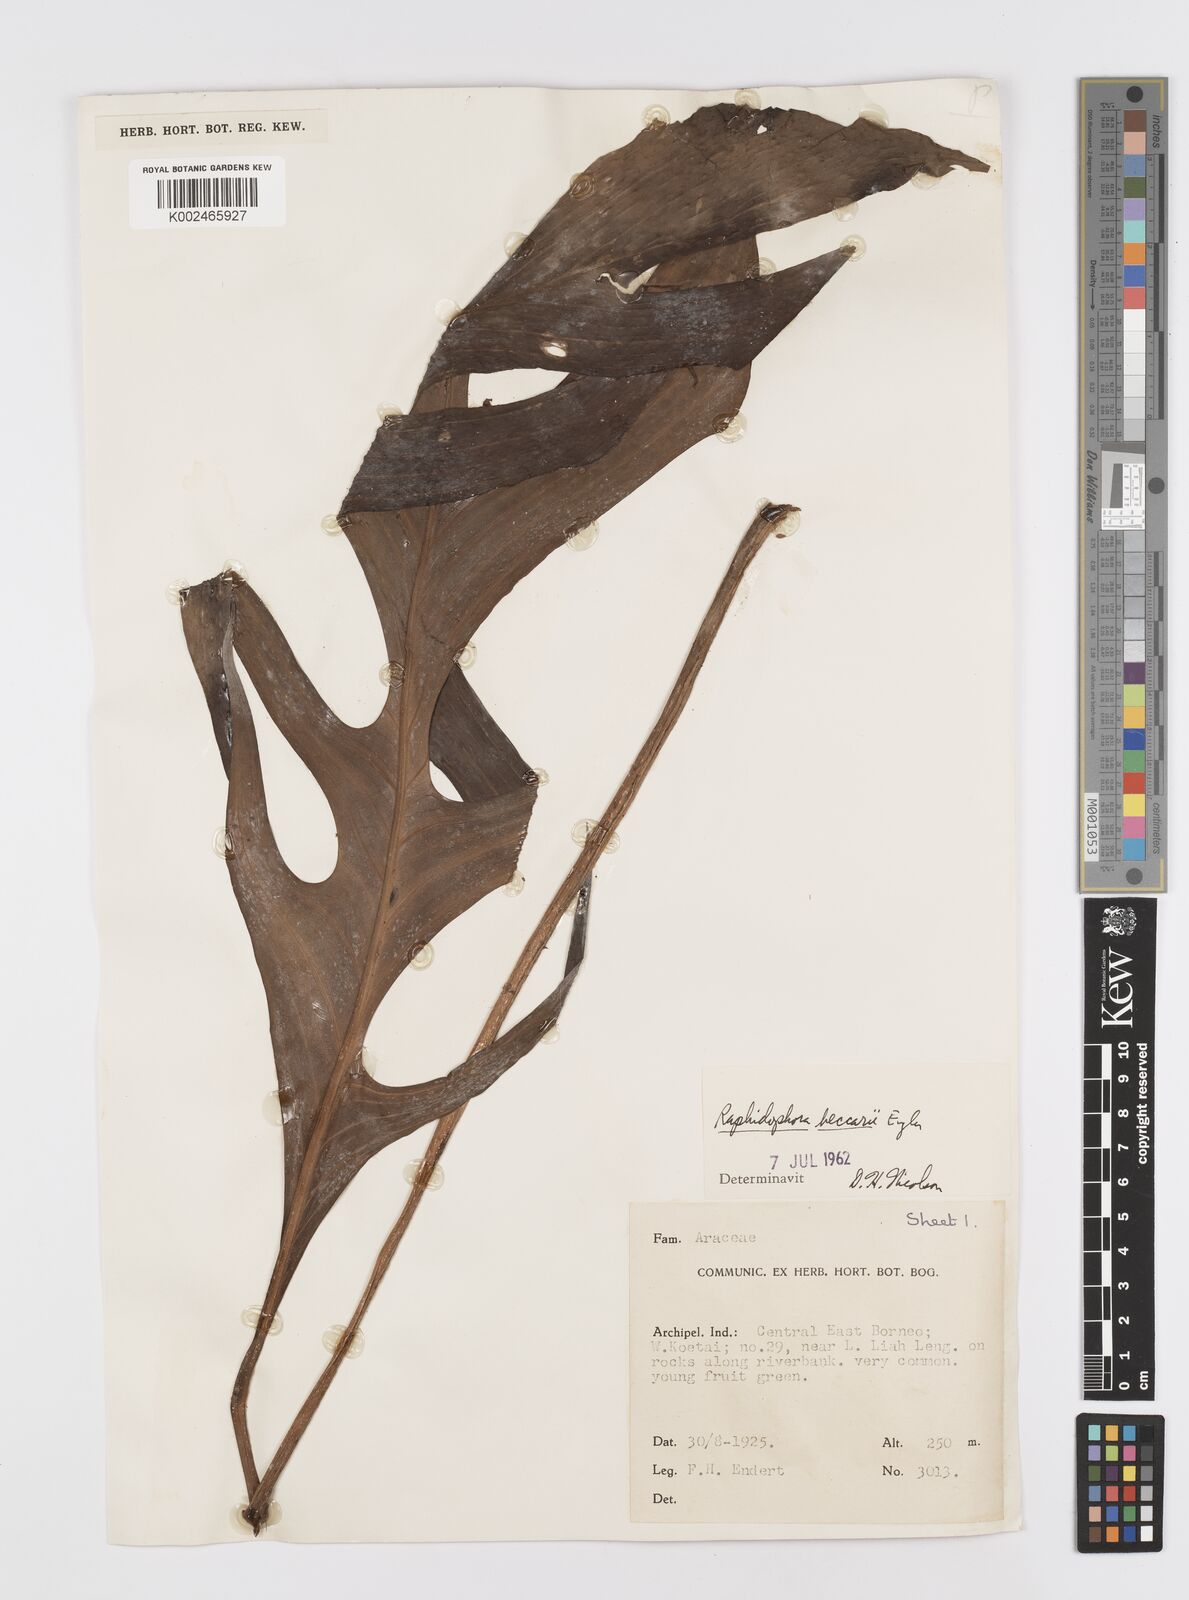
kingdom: Plantae
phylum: Tracheophyta
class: Liliopsida
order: Alismatales
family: Araceae
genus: Rhaphidophora
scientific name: Rhaphidophora beccarii
